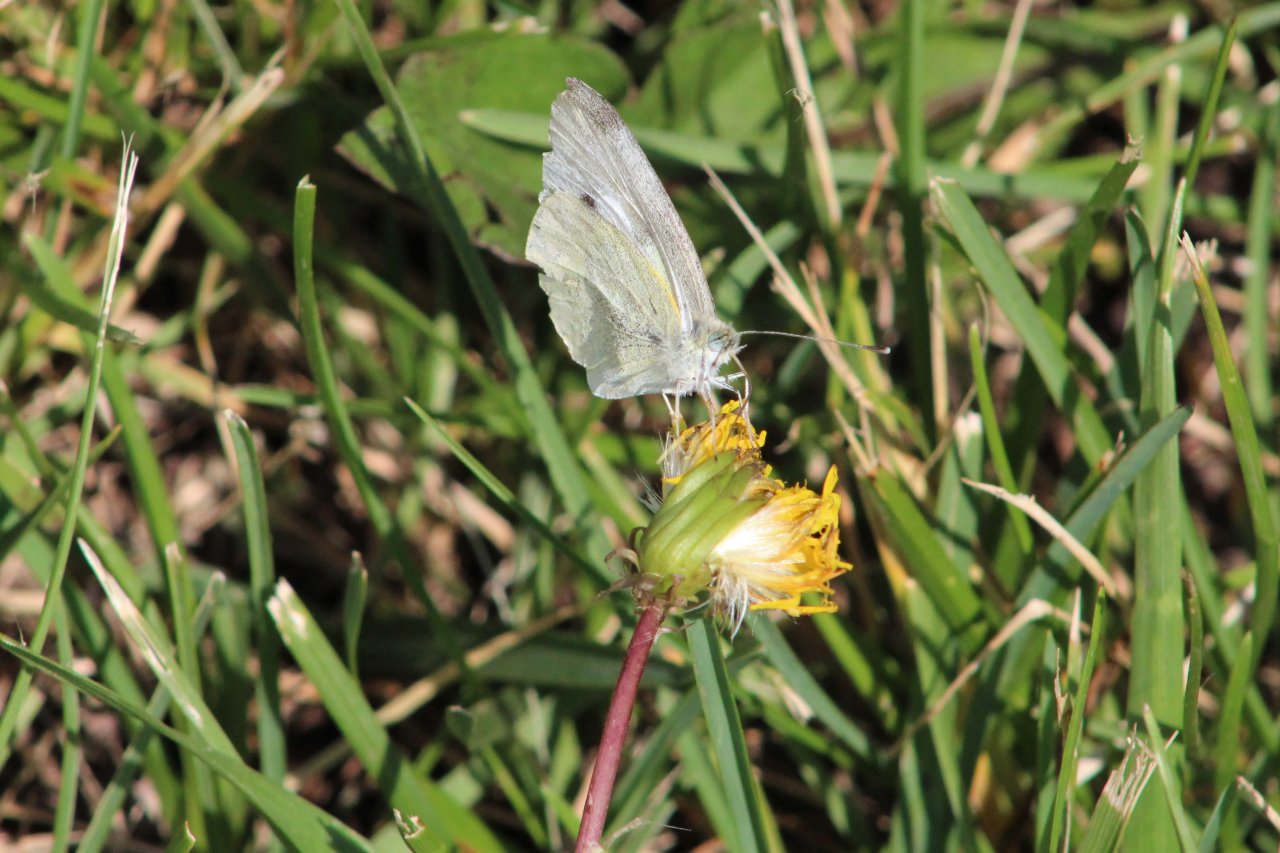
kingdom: Animalia
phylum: Arthropoda
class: Insecta
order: Lepidoptera
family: Pieridae
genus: Pieris
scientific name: Pieris rapae
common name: Cabbage White
